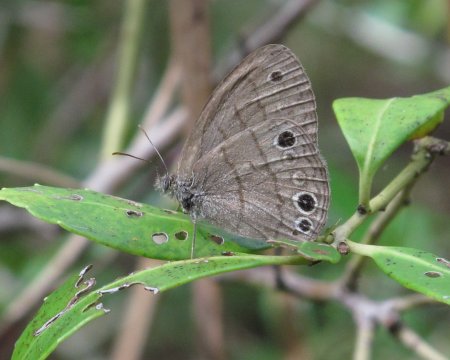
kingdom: Animalia
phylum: Arthropoda
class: Insecta
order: Lepidoptera
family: Nymphalidae
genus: Hermeuptychia
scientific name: Hermeuptychia intricata
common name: Intricate Satyr
